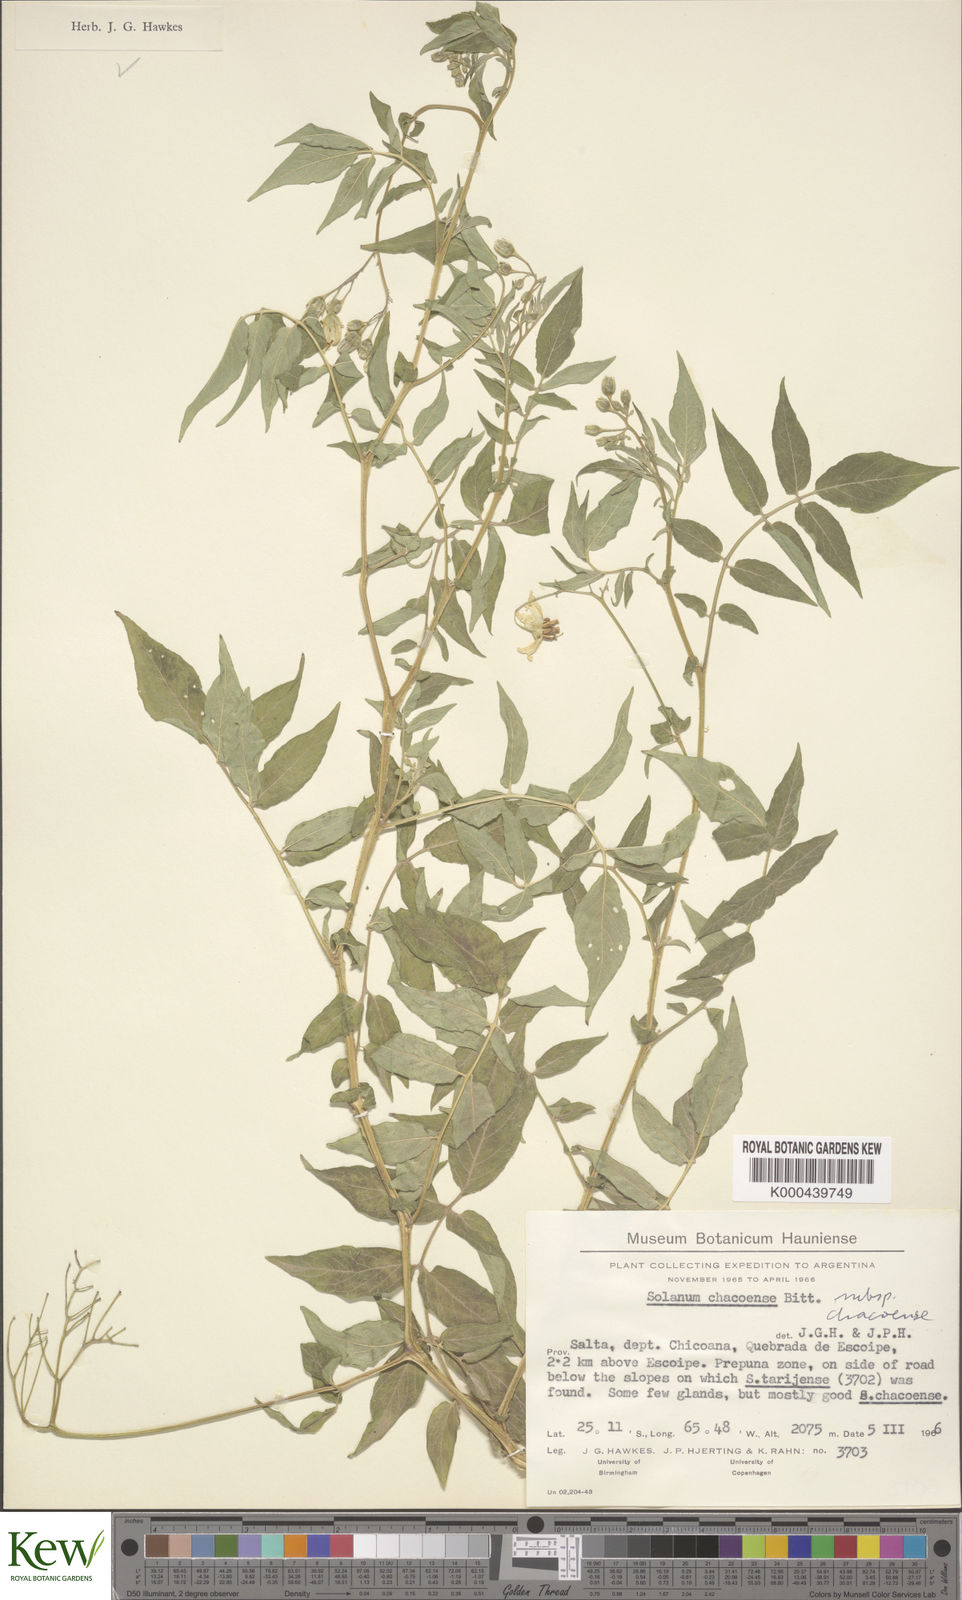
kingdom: Plantae
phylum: Tracheophyta
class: Magnoliopsida
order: Solanales
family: Solanaceae
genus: Solanum
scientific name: Solanum chacoense
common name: Chaco potato
